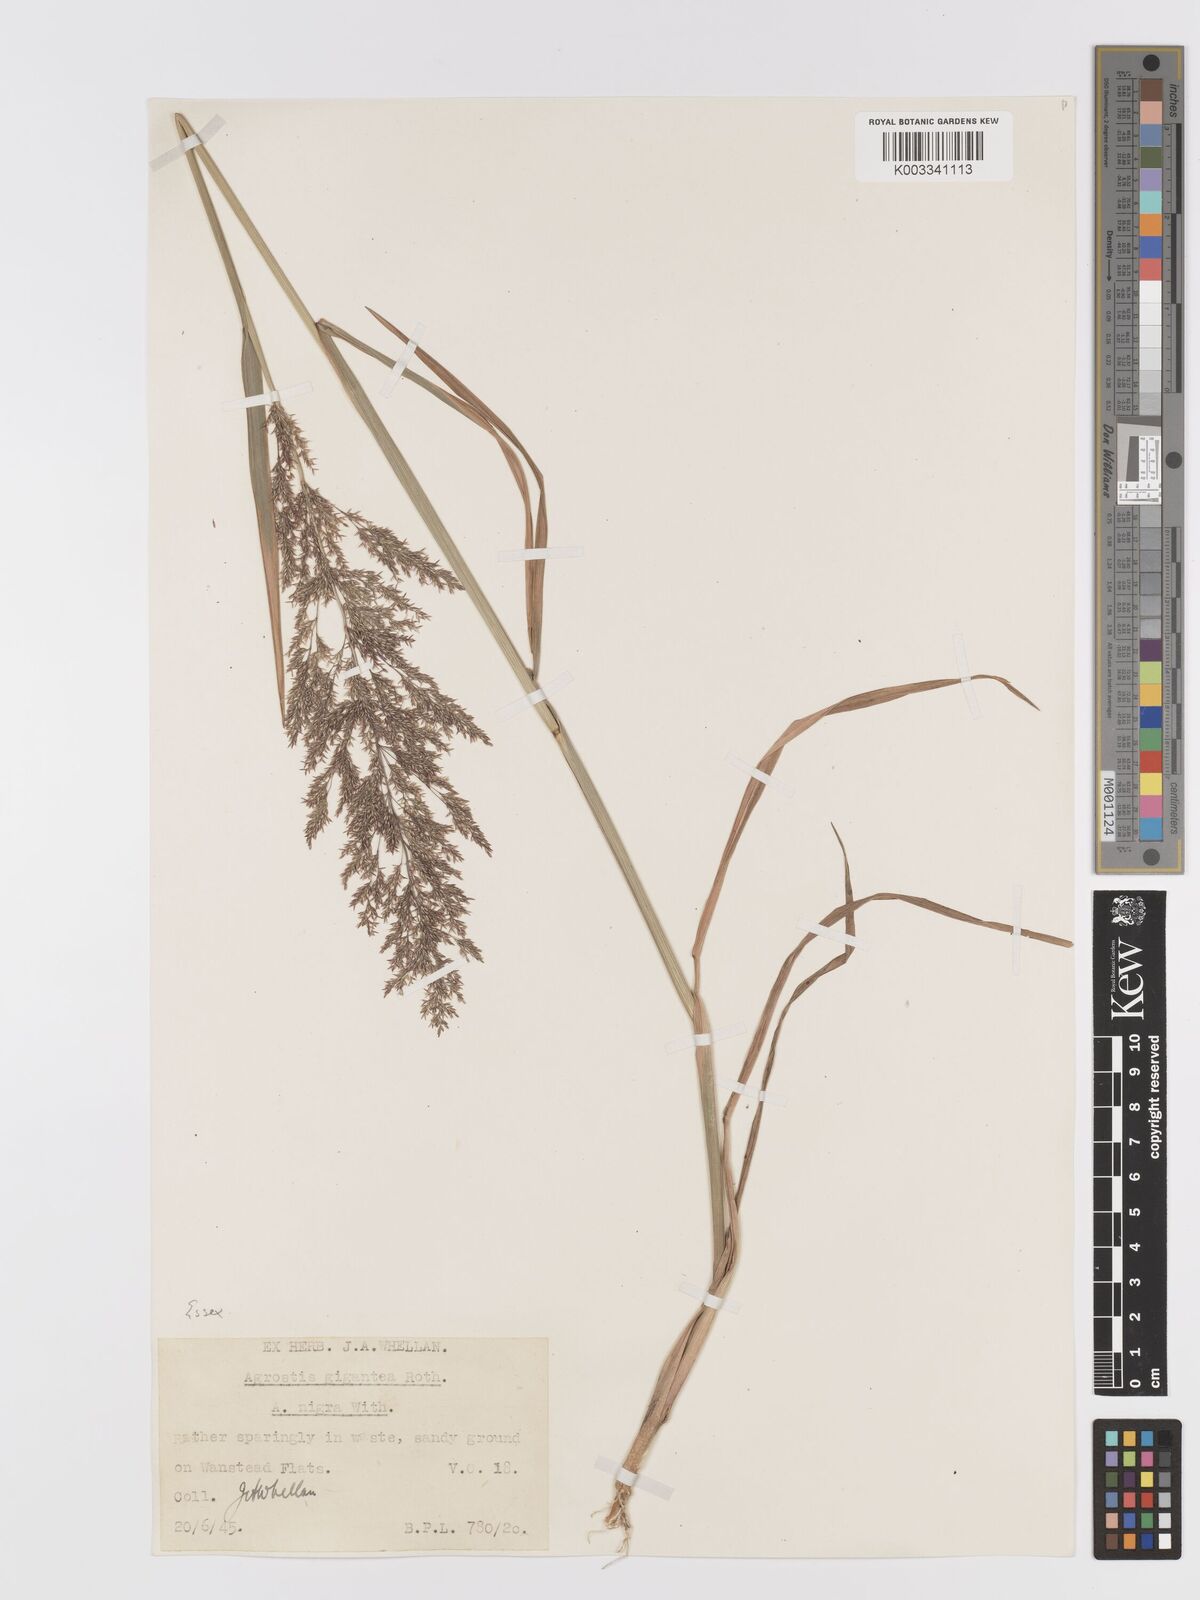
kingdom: Plantae
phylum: Tracheophyta
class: Liliopsida
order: Poales
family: Poaceae
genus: Agrostis
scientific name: Agrostis gigantea
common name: Black bent
